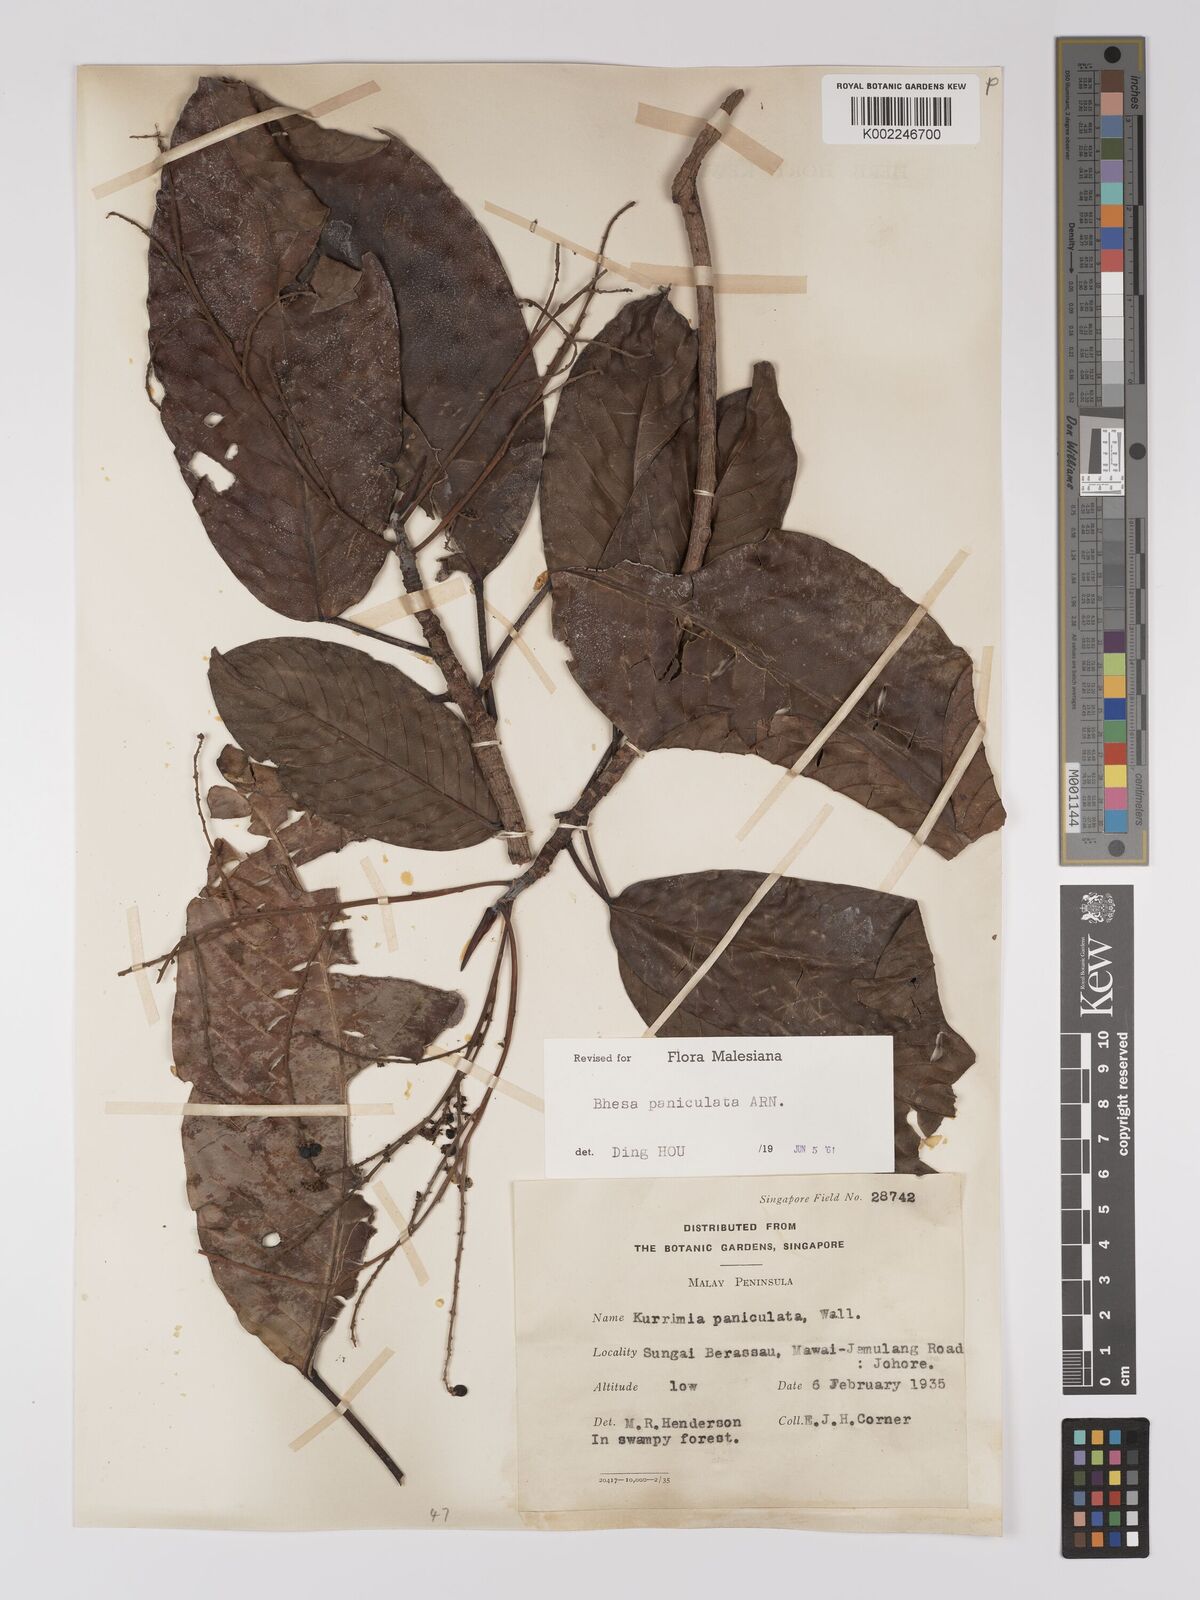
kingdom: Plantae
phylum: Tracheophyta
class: Magnoliopsida
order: Malpighiales
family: Centroplacaceae
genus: Bhesa
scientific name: Bhesa paniculata
